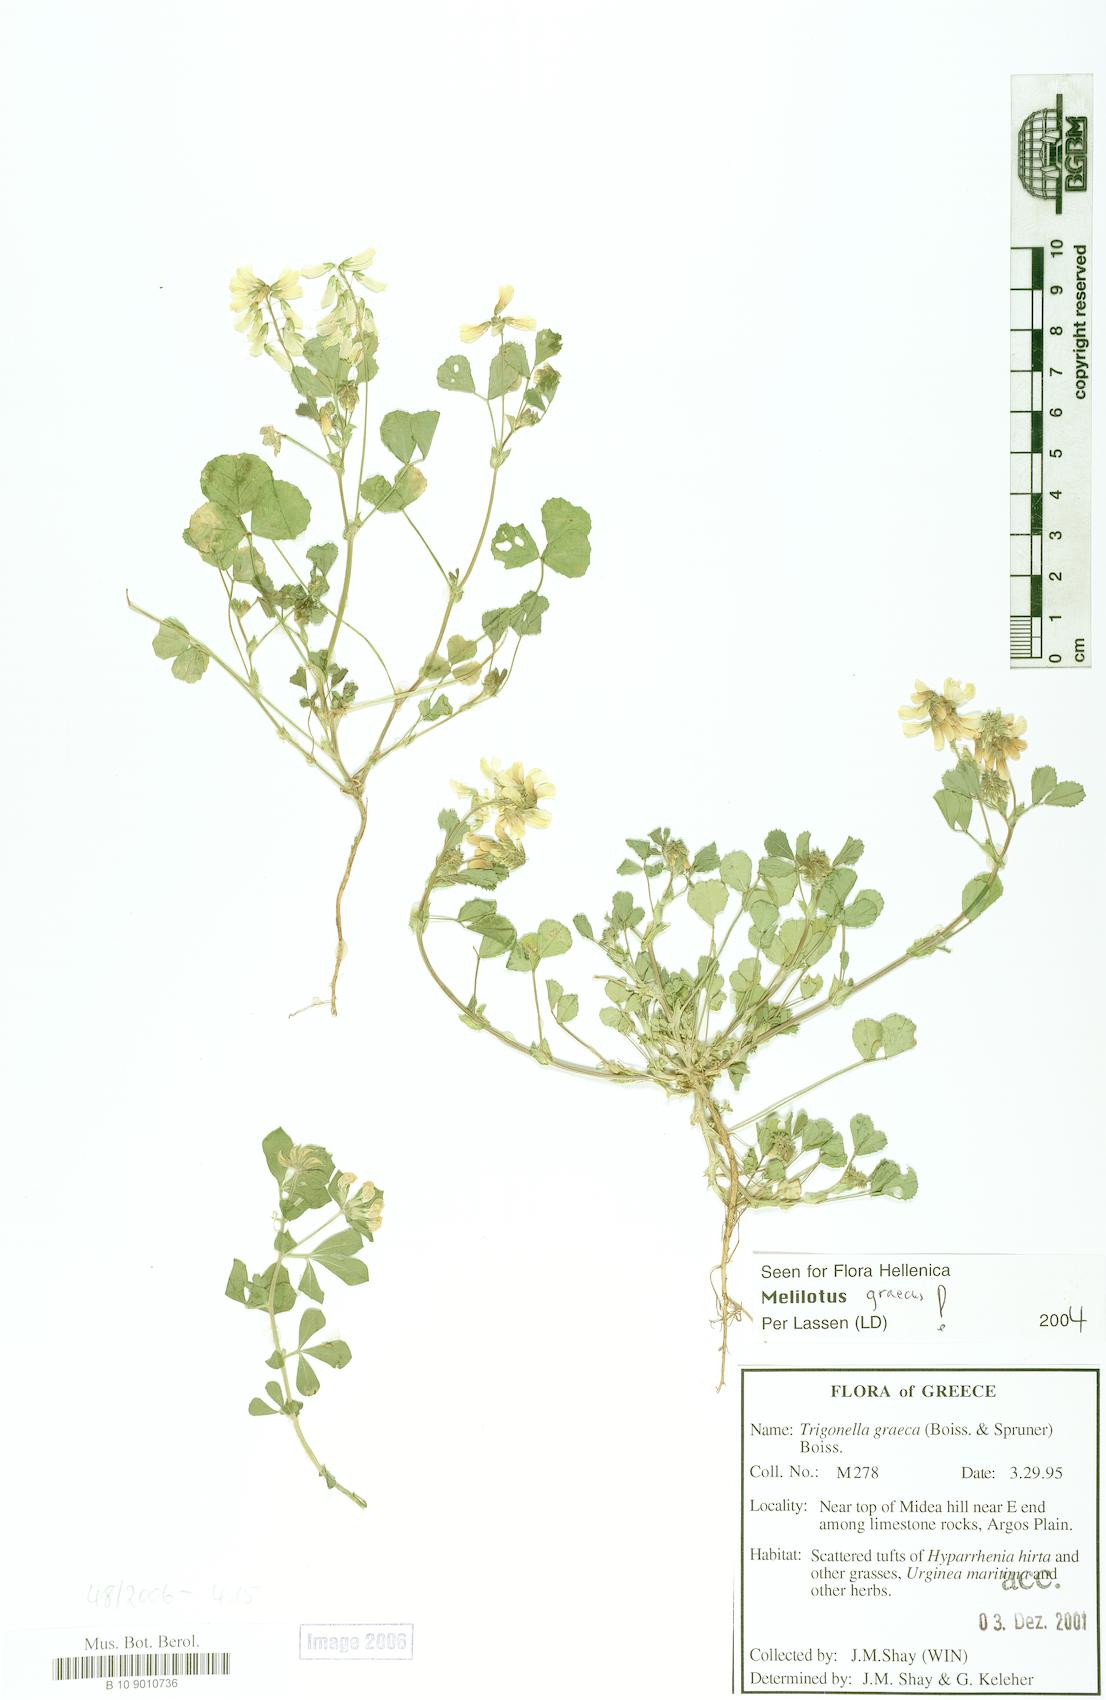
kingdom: Plantae
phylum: Tracheophyta
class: Magnoliopsida
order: Fabales
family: Fabaceae
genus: Trigonella
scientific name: Trigonella graeca
